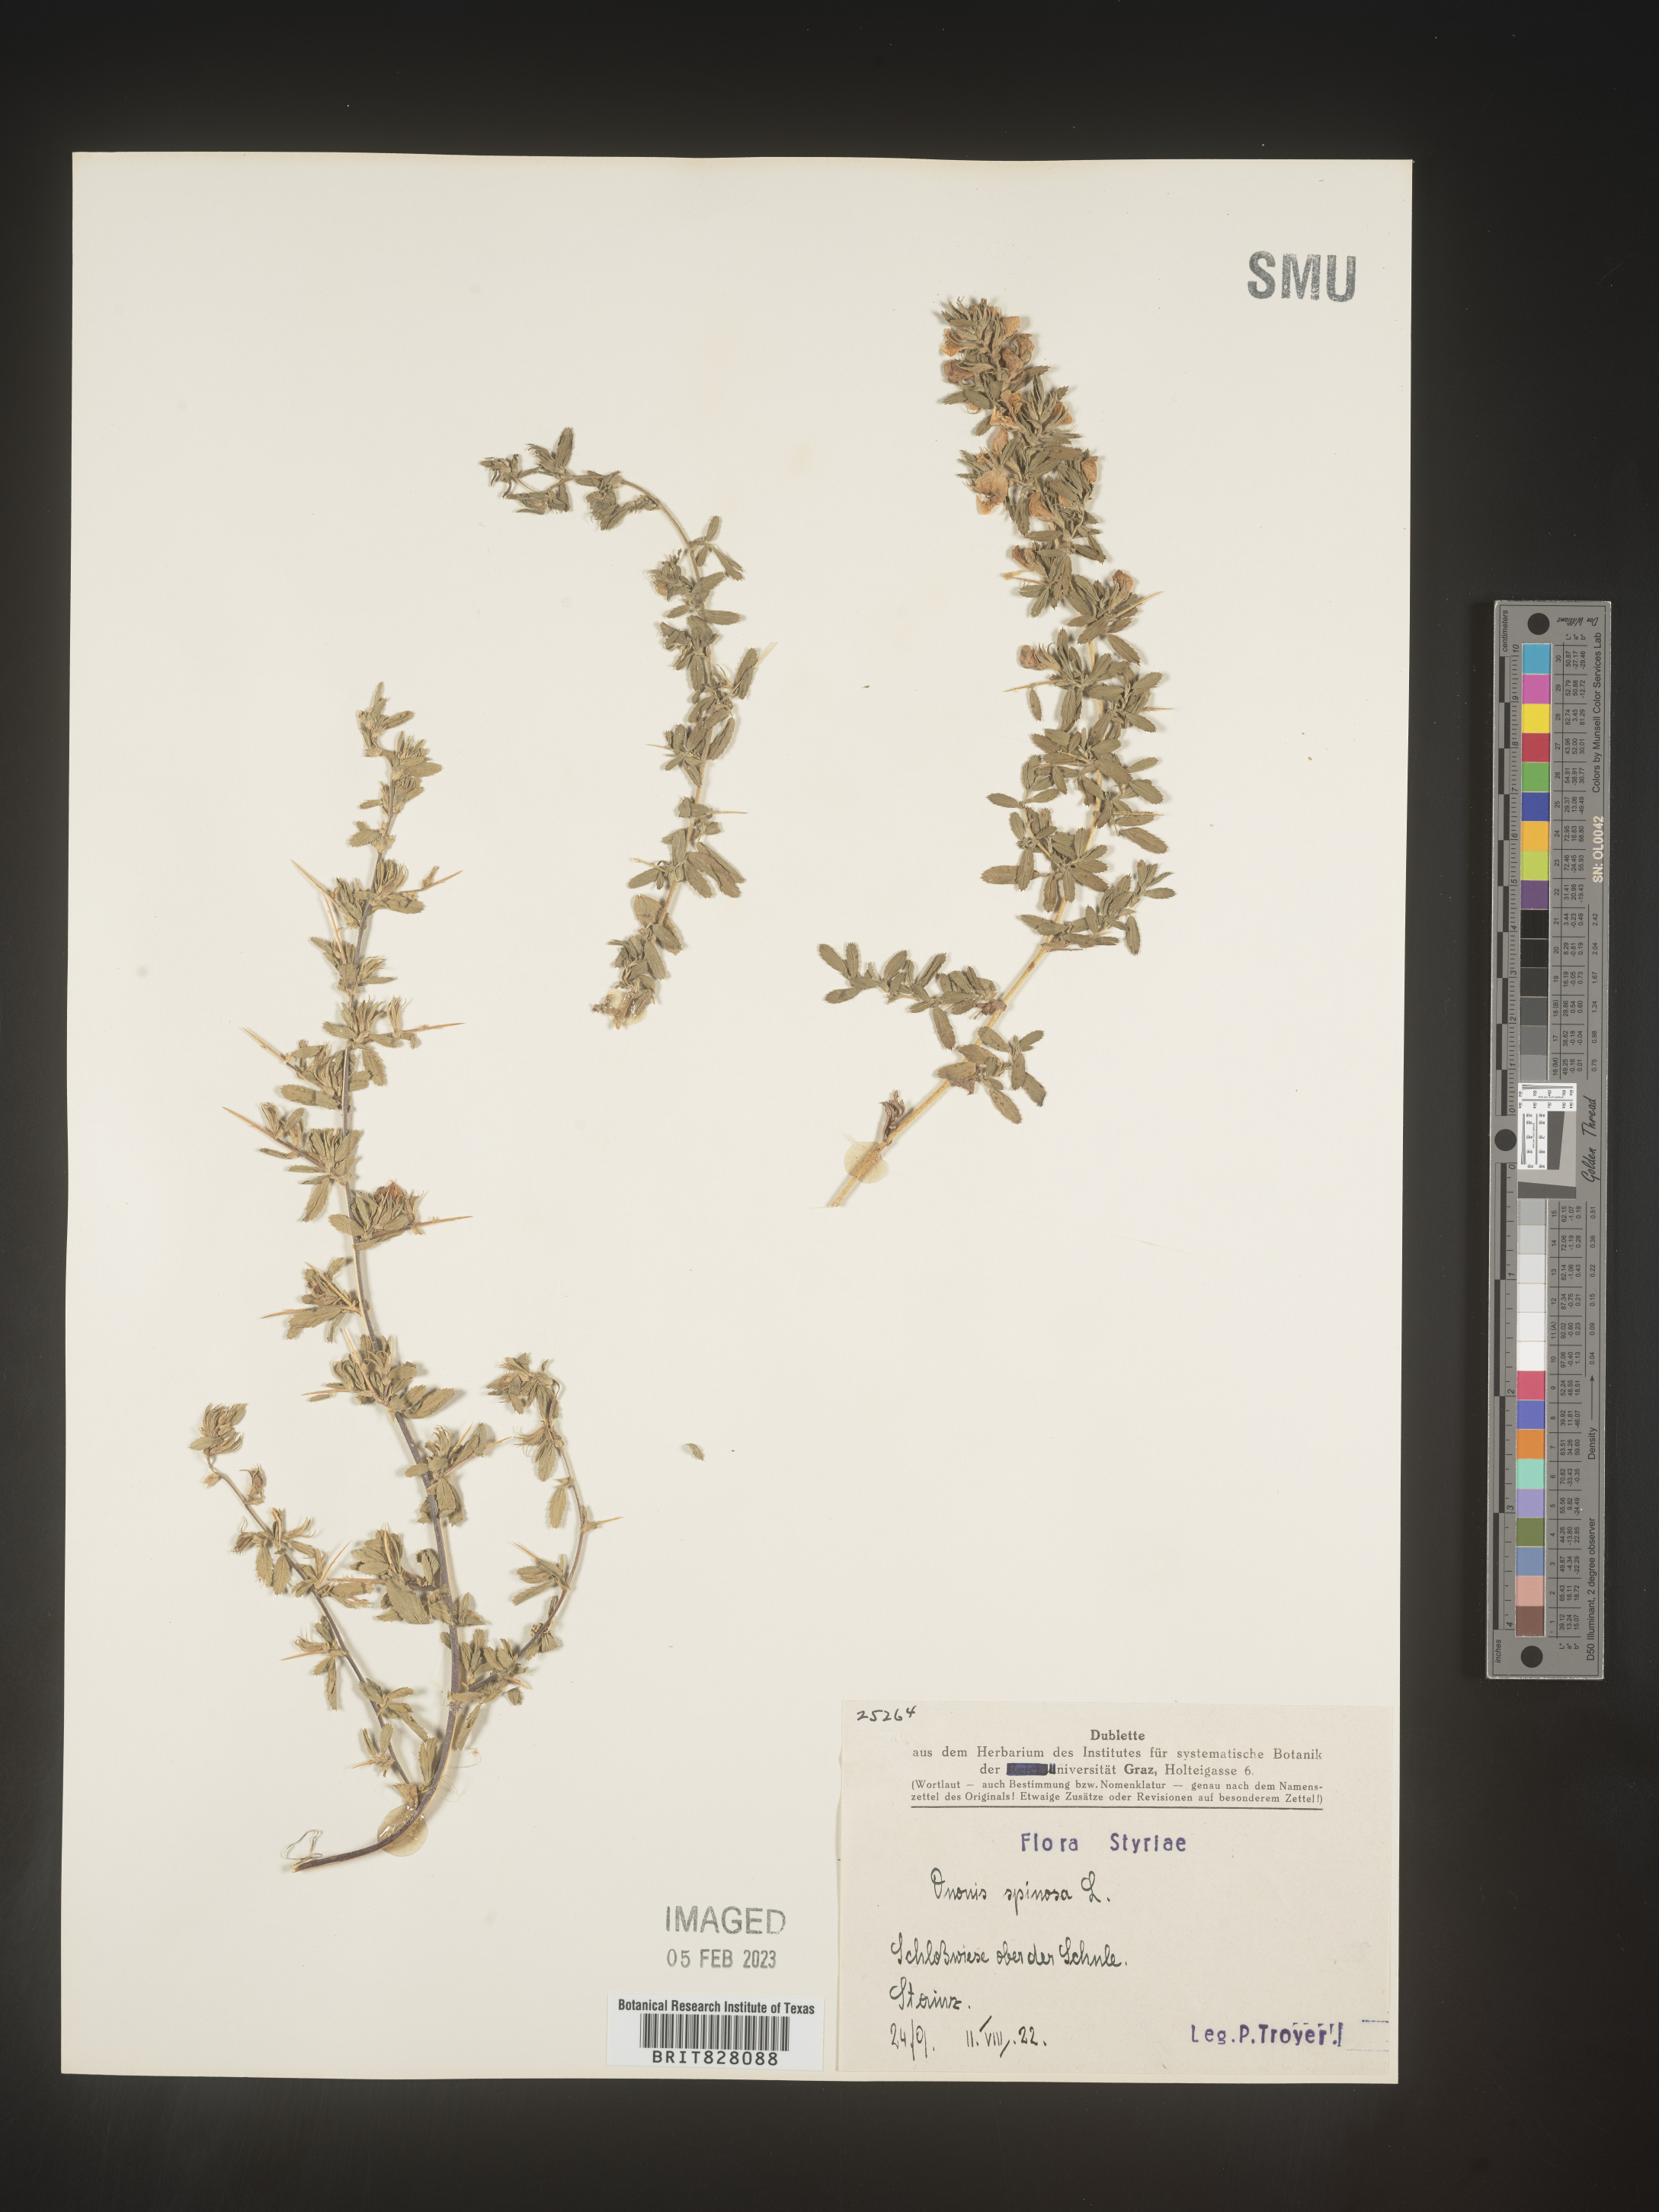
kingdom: Plantae
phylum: Tracheophyta
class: Magnoliopsida
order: Fabales
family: Fabaceae
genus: Ononis
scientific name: Ononis
